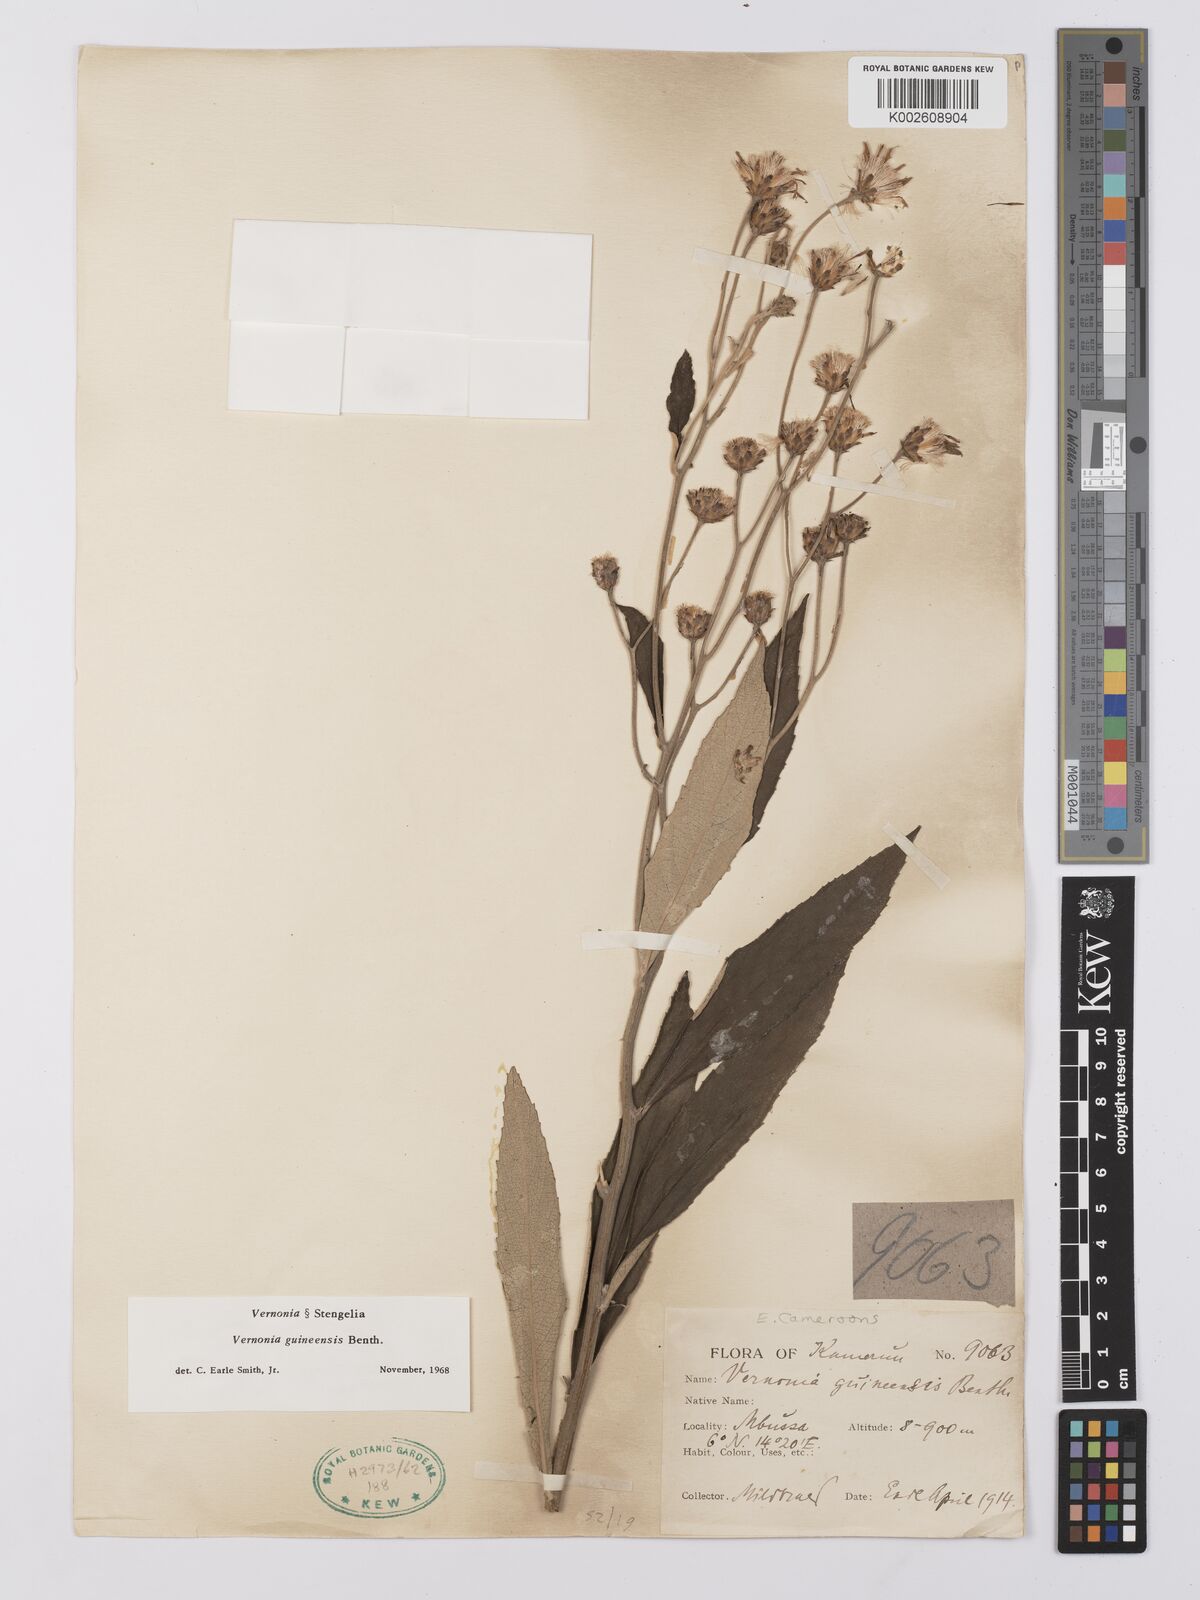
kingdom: Plantae
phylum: Tracheophyta
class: Magnoliopsida
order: Asterales
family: Asteraceae
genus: Baccharoides
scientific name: Baccharoides guineensis
